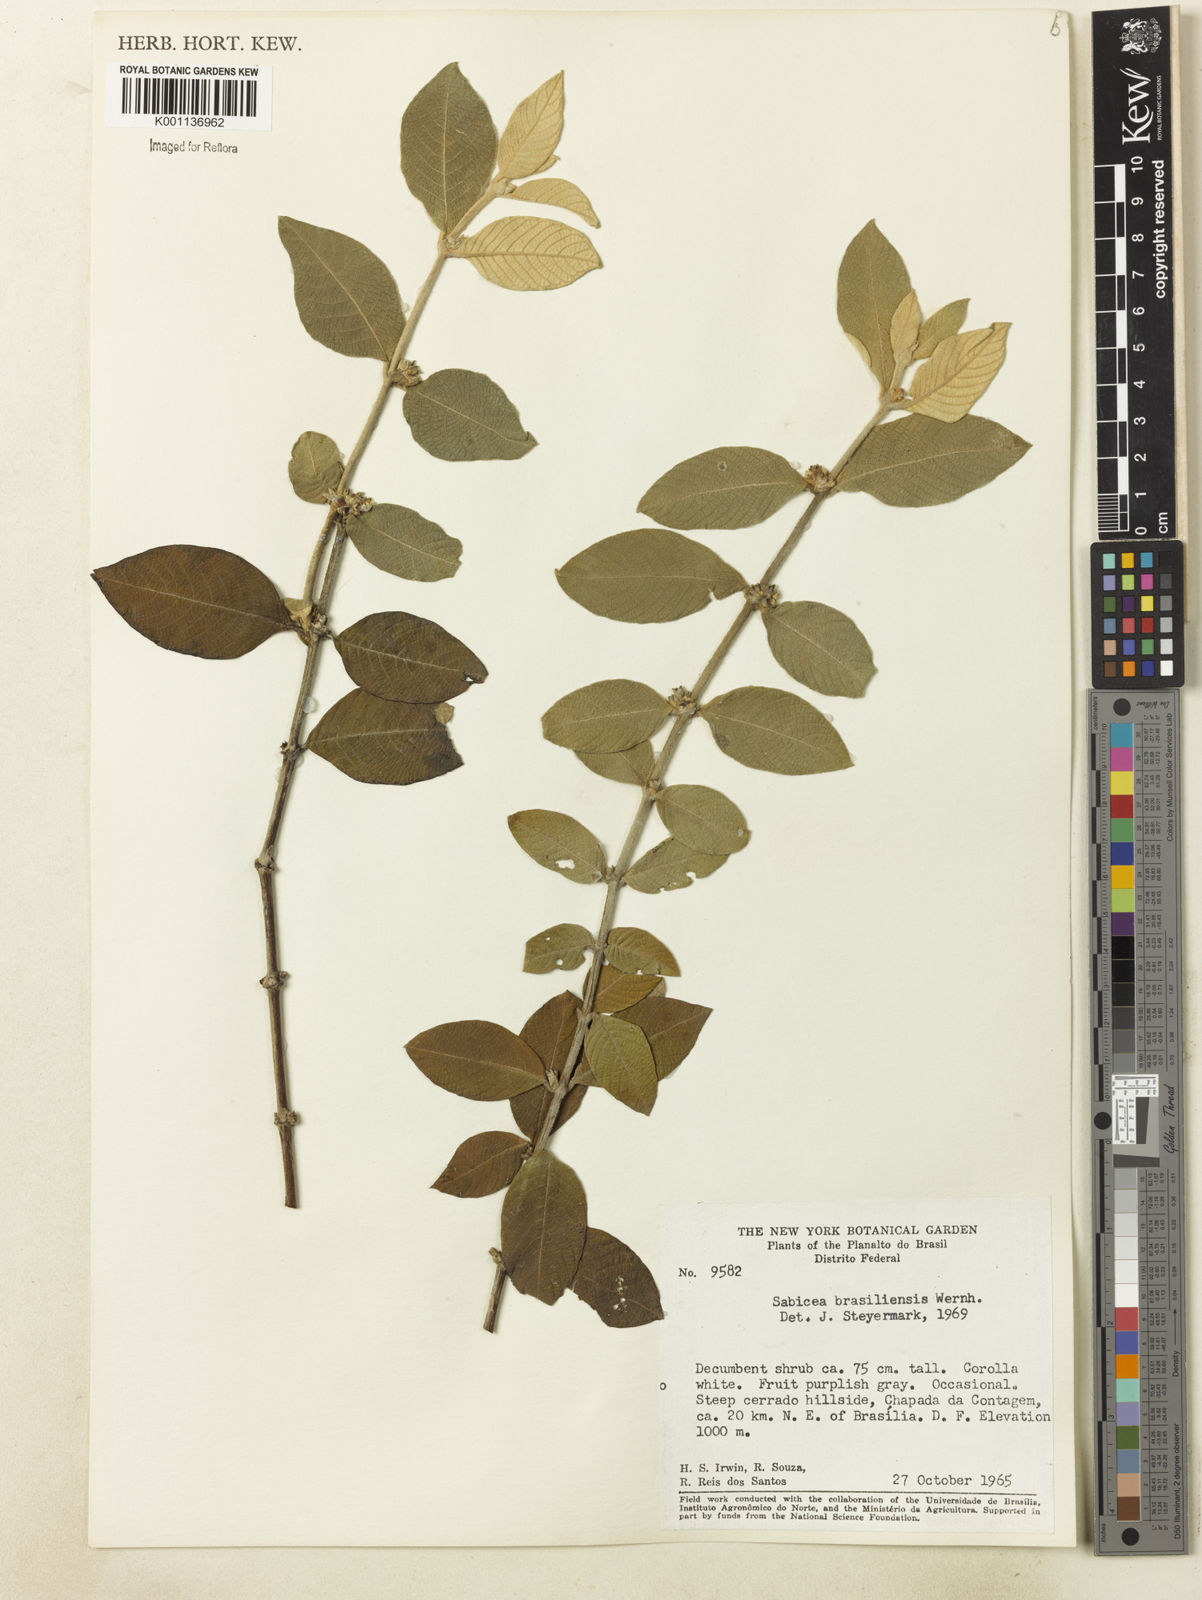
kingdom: Plantae
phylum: Tracheophyta
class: Magnoliopsida
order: Gentianales
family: Rubiaceae
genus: Sabicea
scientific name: Sabicea brasiliensis
